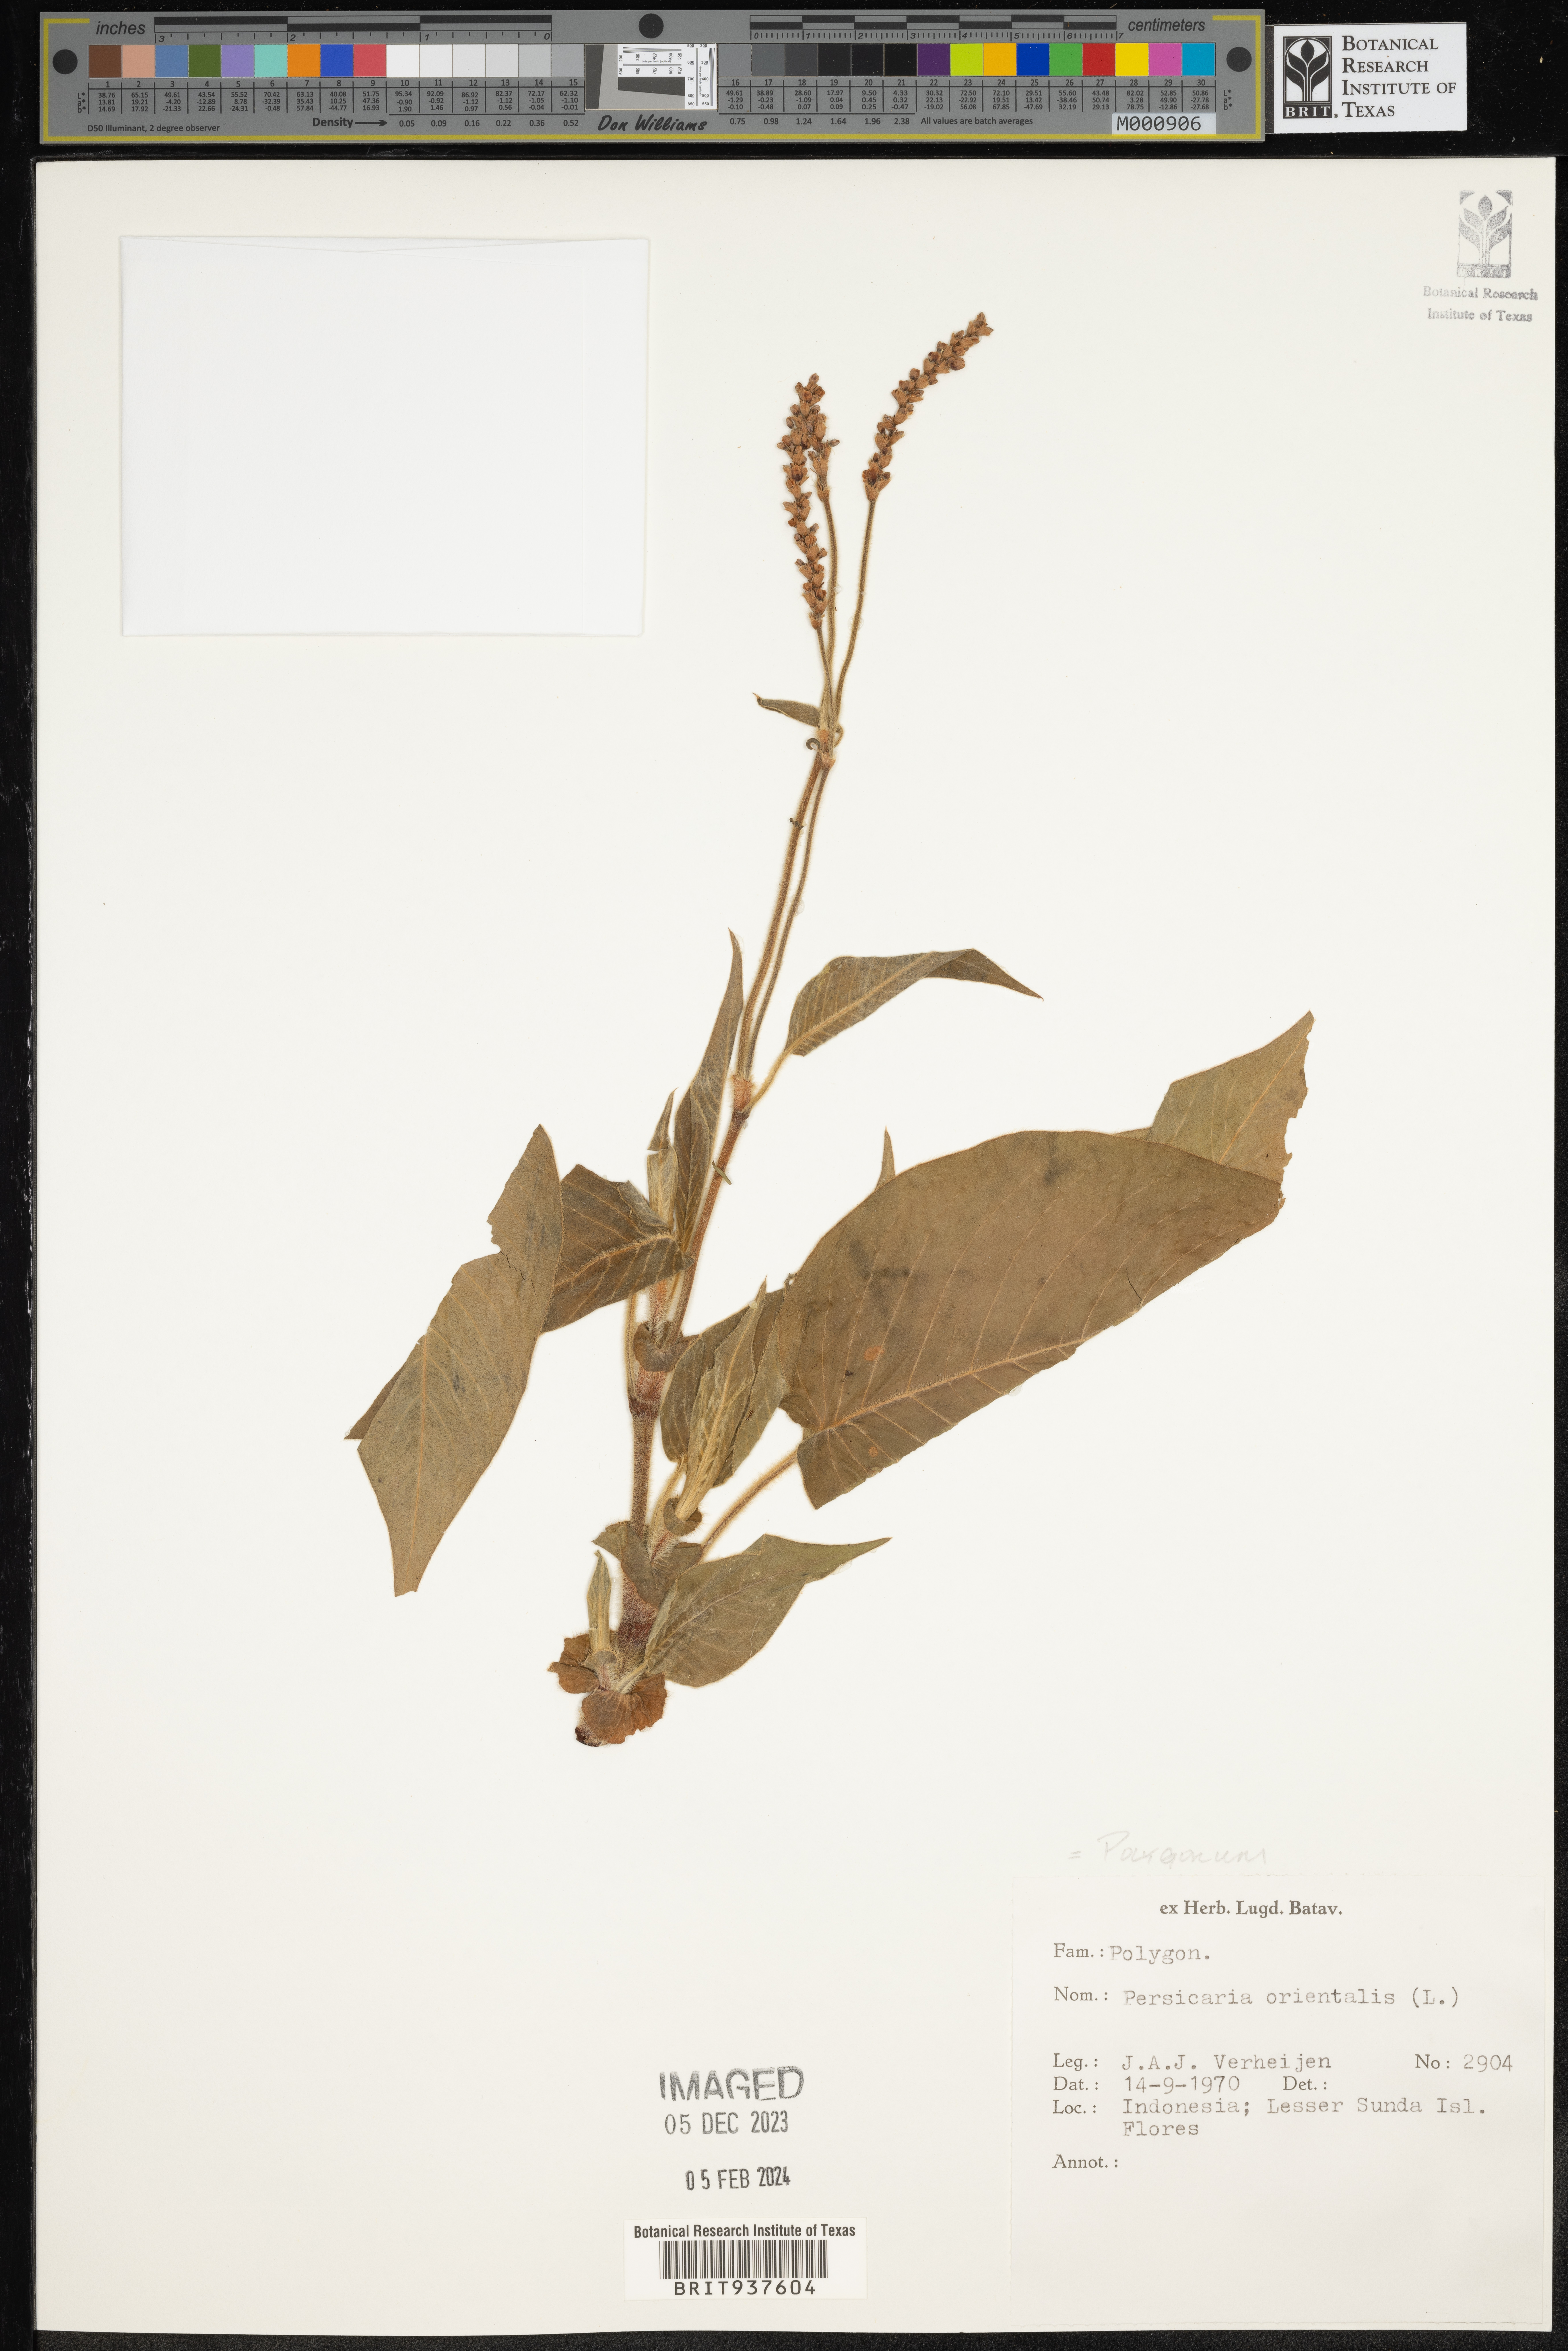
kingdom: Plantae
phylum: Tracheophyta
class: Magnoliopsida
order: Caryophyllales
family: Polygonaceae
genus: Polygonum
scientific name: Polygonum
